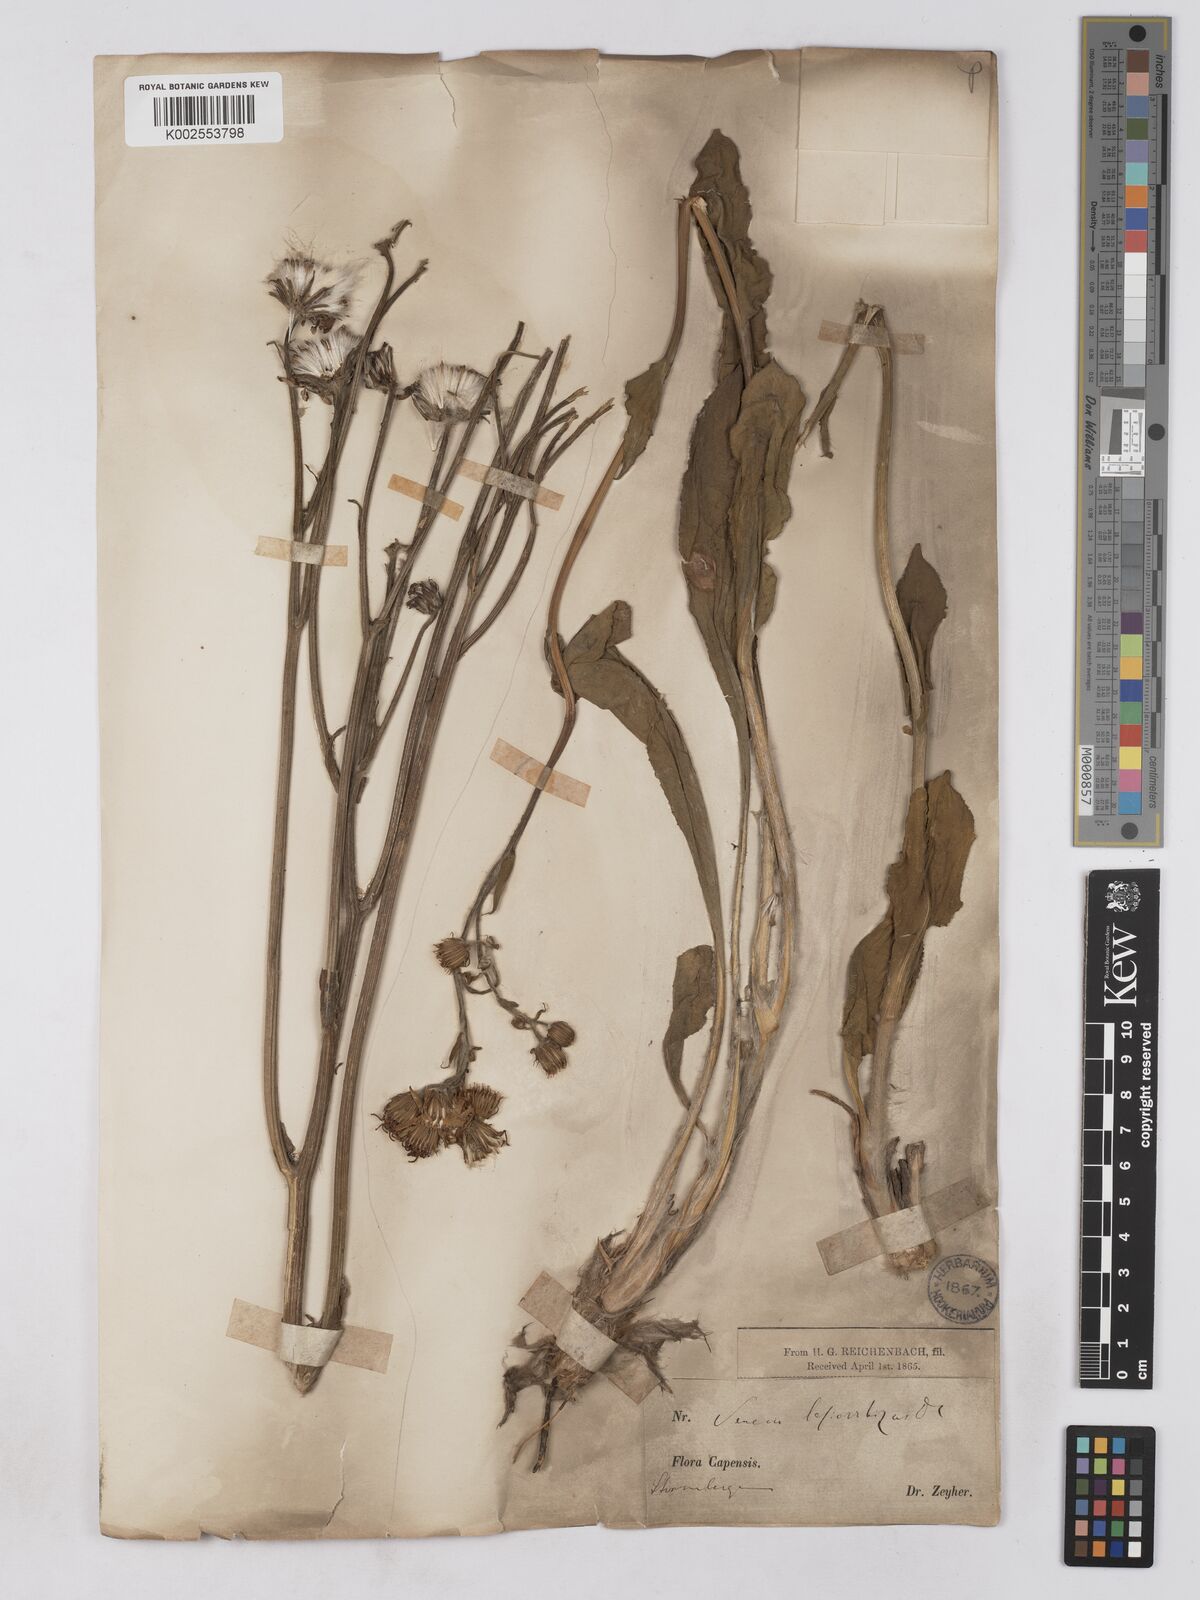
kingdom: Plantae
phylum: Tracheophyta
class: Magnoliopsida
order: Asterales
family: Asteraceae
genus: Senecio
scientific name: Senecio coronatus
